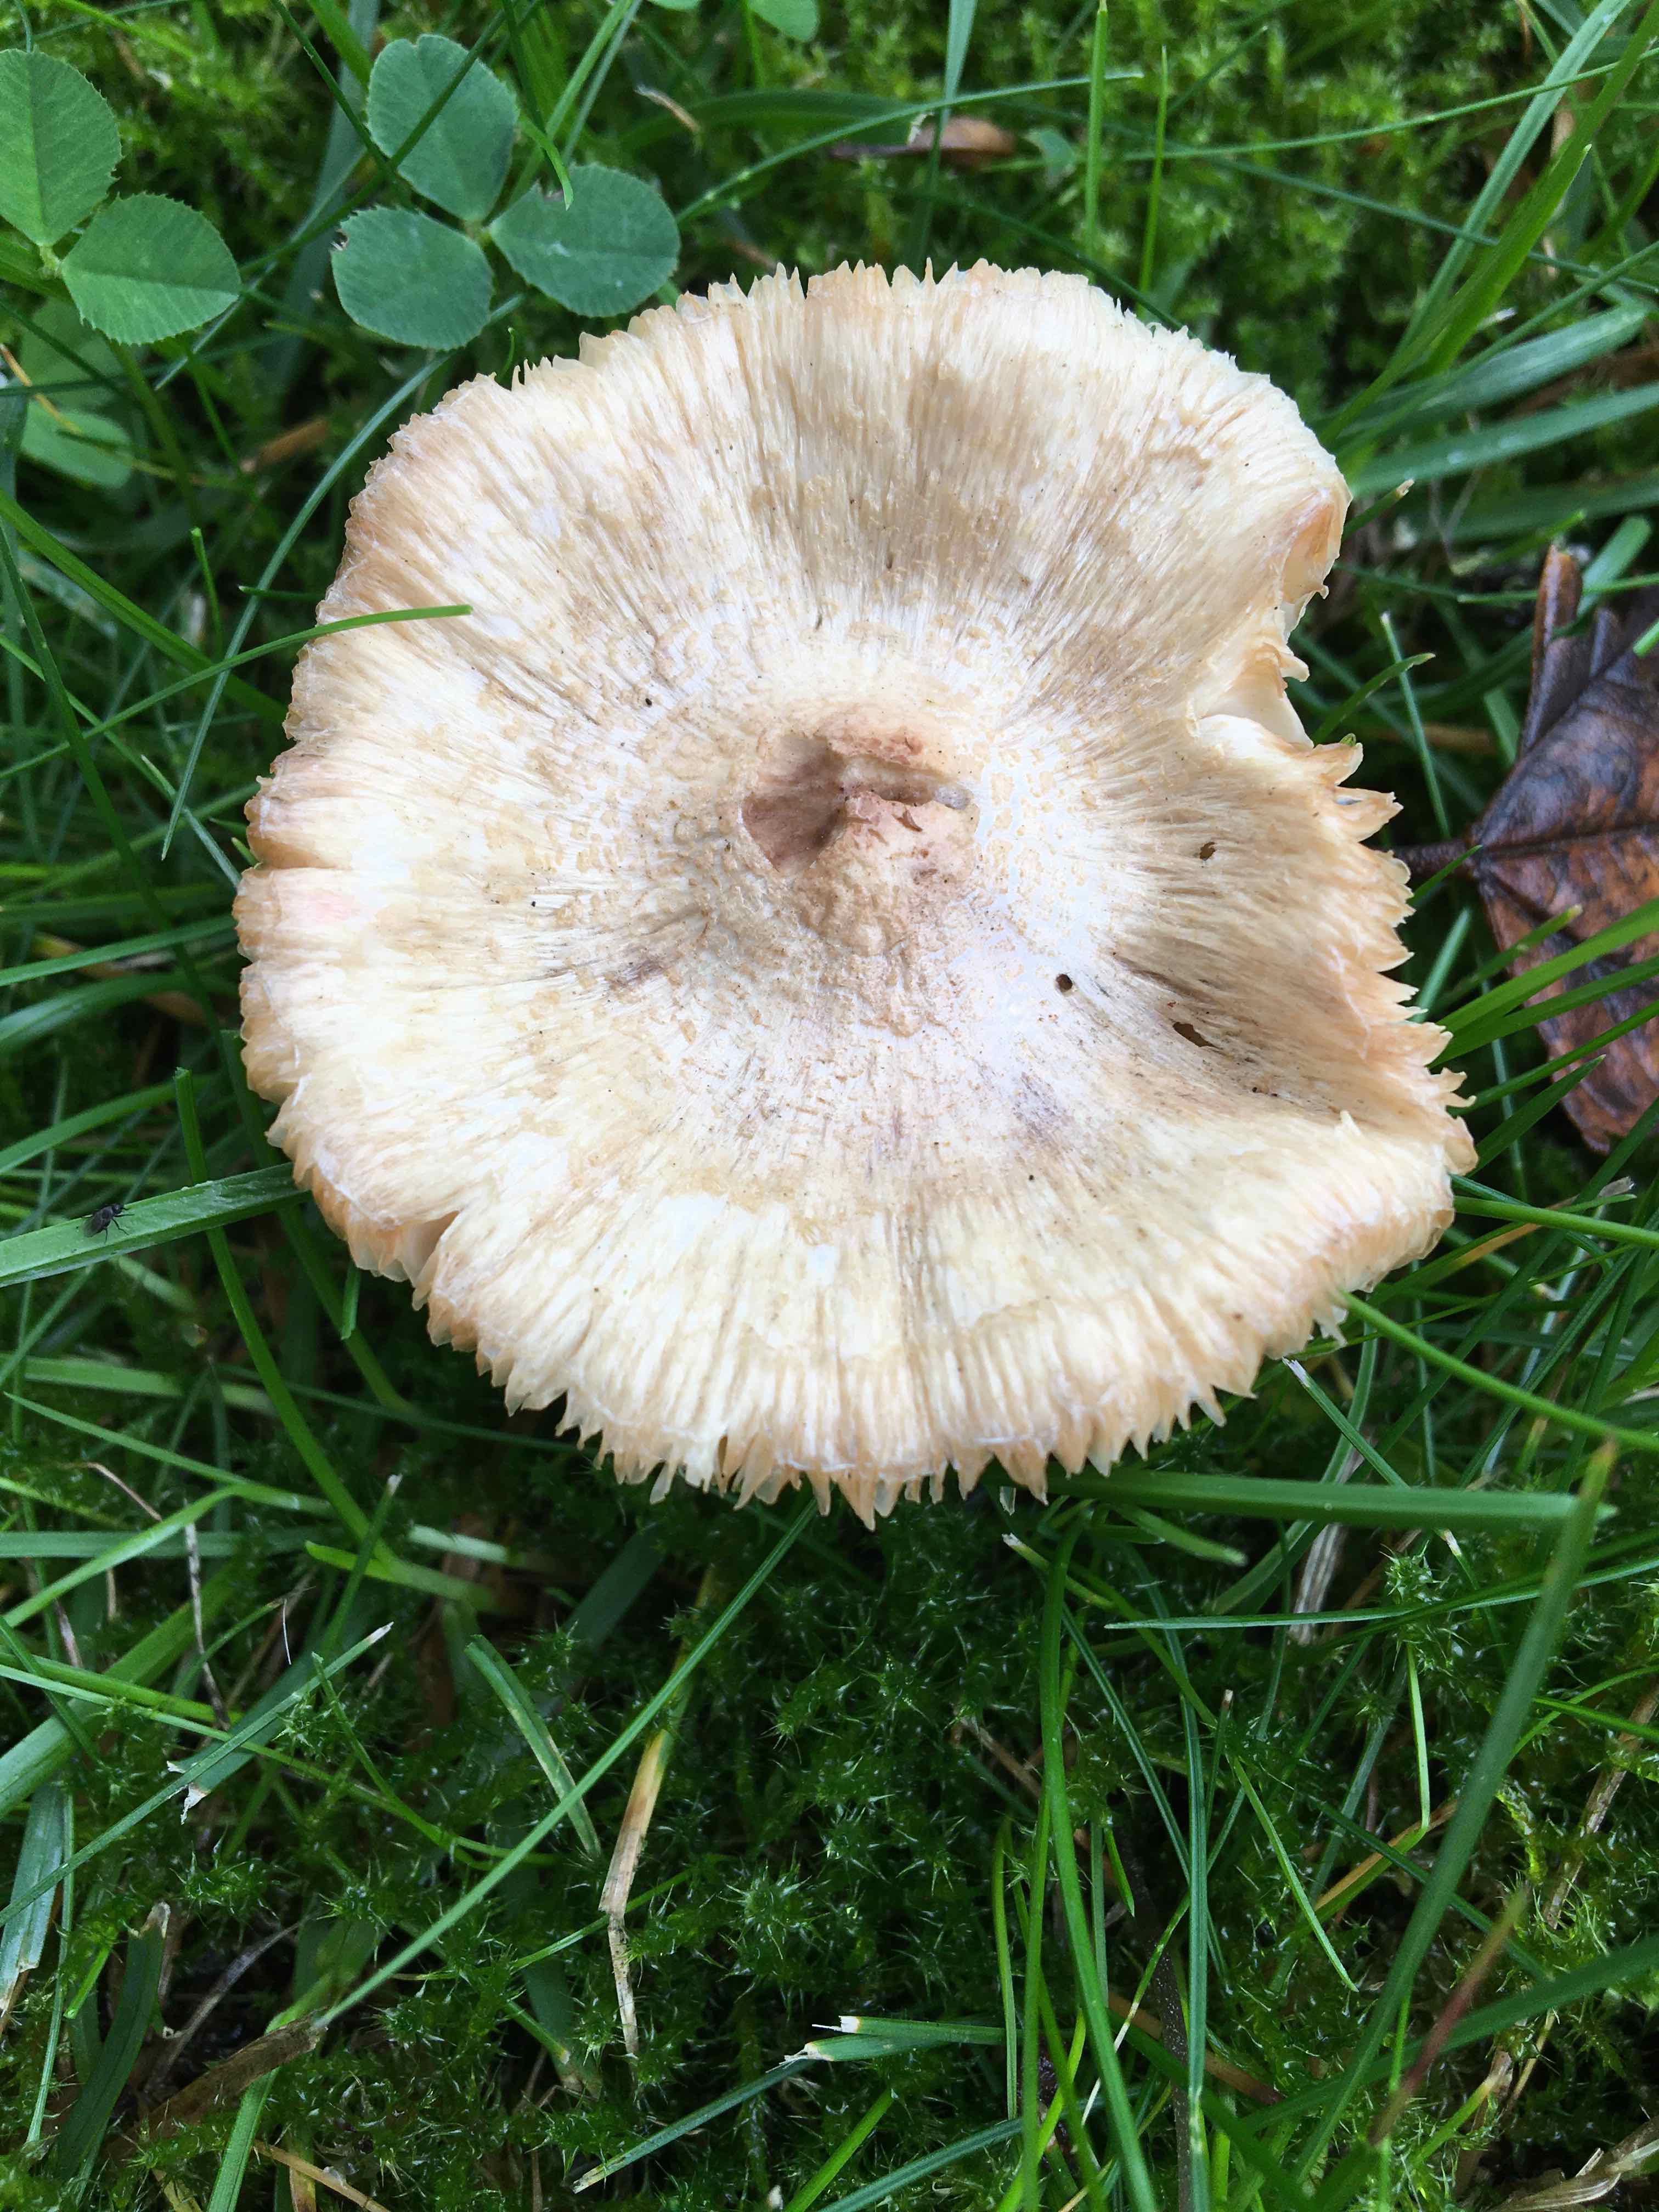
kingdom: Fungi
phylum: Basidiomycota
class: Agaricomycetes
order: Agaricales
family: Agaricaceae
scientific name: Agaricaceae
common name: champignonfamilien
